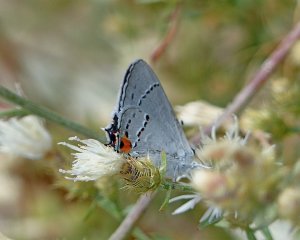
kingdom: Animalia
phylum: Arthropoda
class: Insecta
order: Lepidoptera
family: Lycaenidae
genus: Strymon
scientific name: Strymon melinus
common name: Gray Hairstreak
